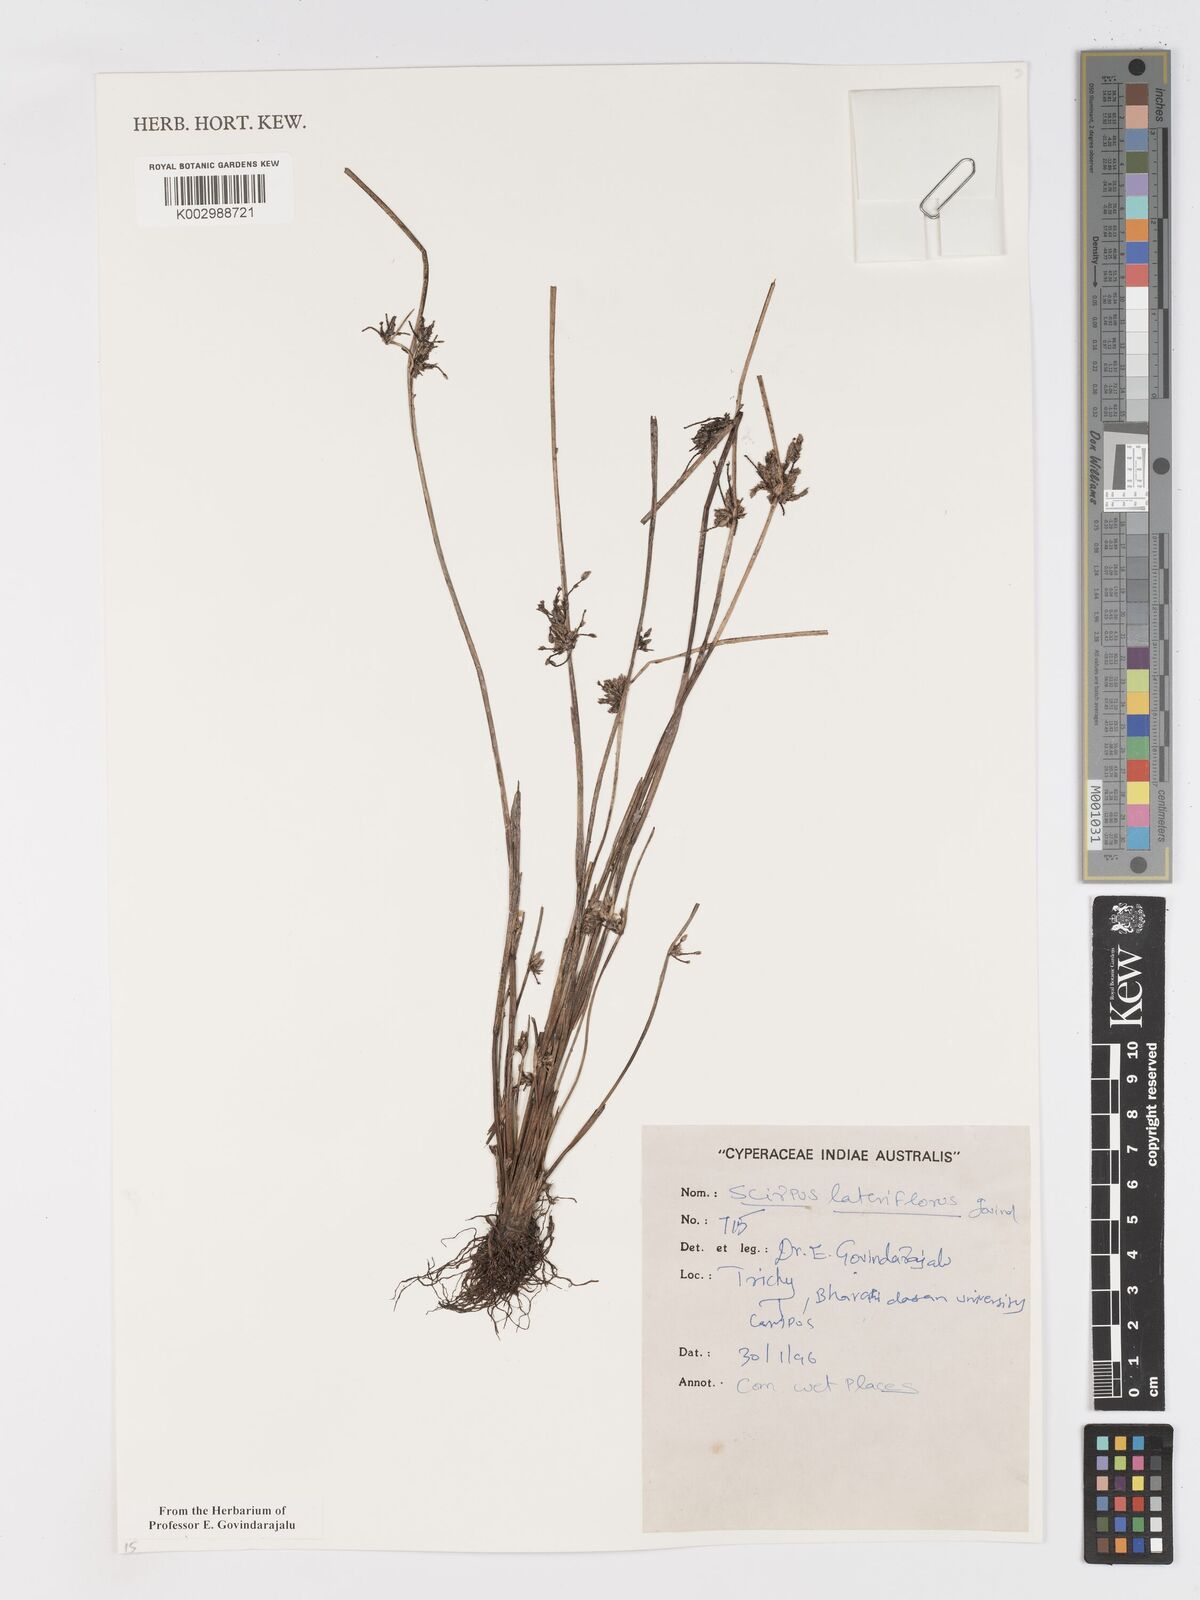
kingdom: Plantae
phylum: Tracheophyta
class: Liliopsida
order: Poales
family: Cyperaceae
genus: Schoenoplectiella
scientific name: Schoenoplectiella lateriflora
